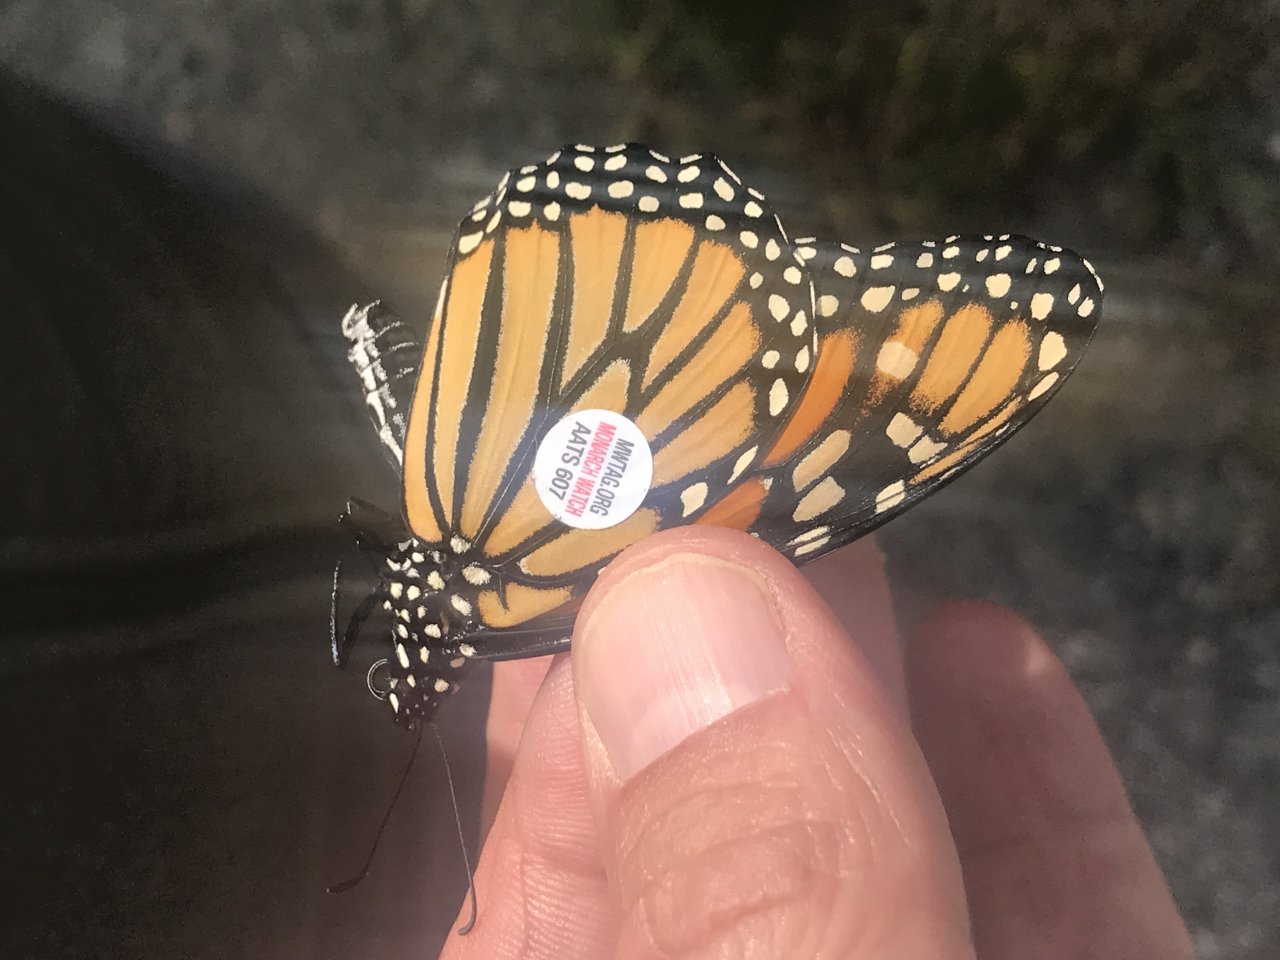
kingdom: Animalia
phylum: Arthropoda
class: Insecta
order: Lepidoptera
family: Nymphalidae
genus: Danaus
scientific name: Danaus plexippus
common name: Monarch
